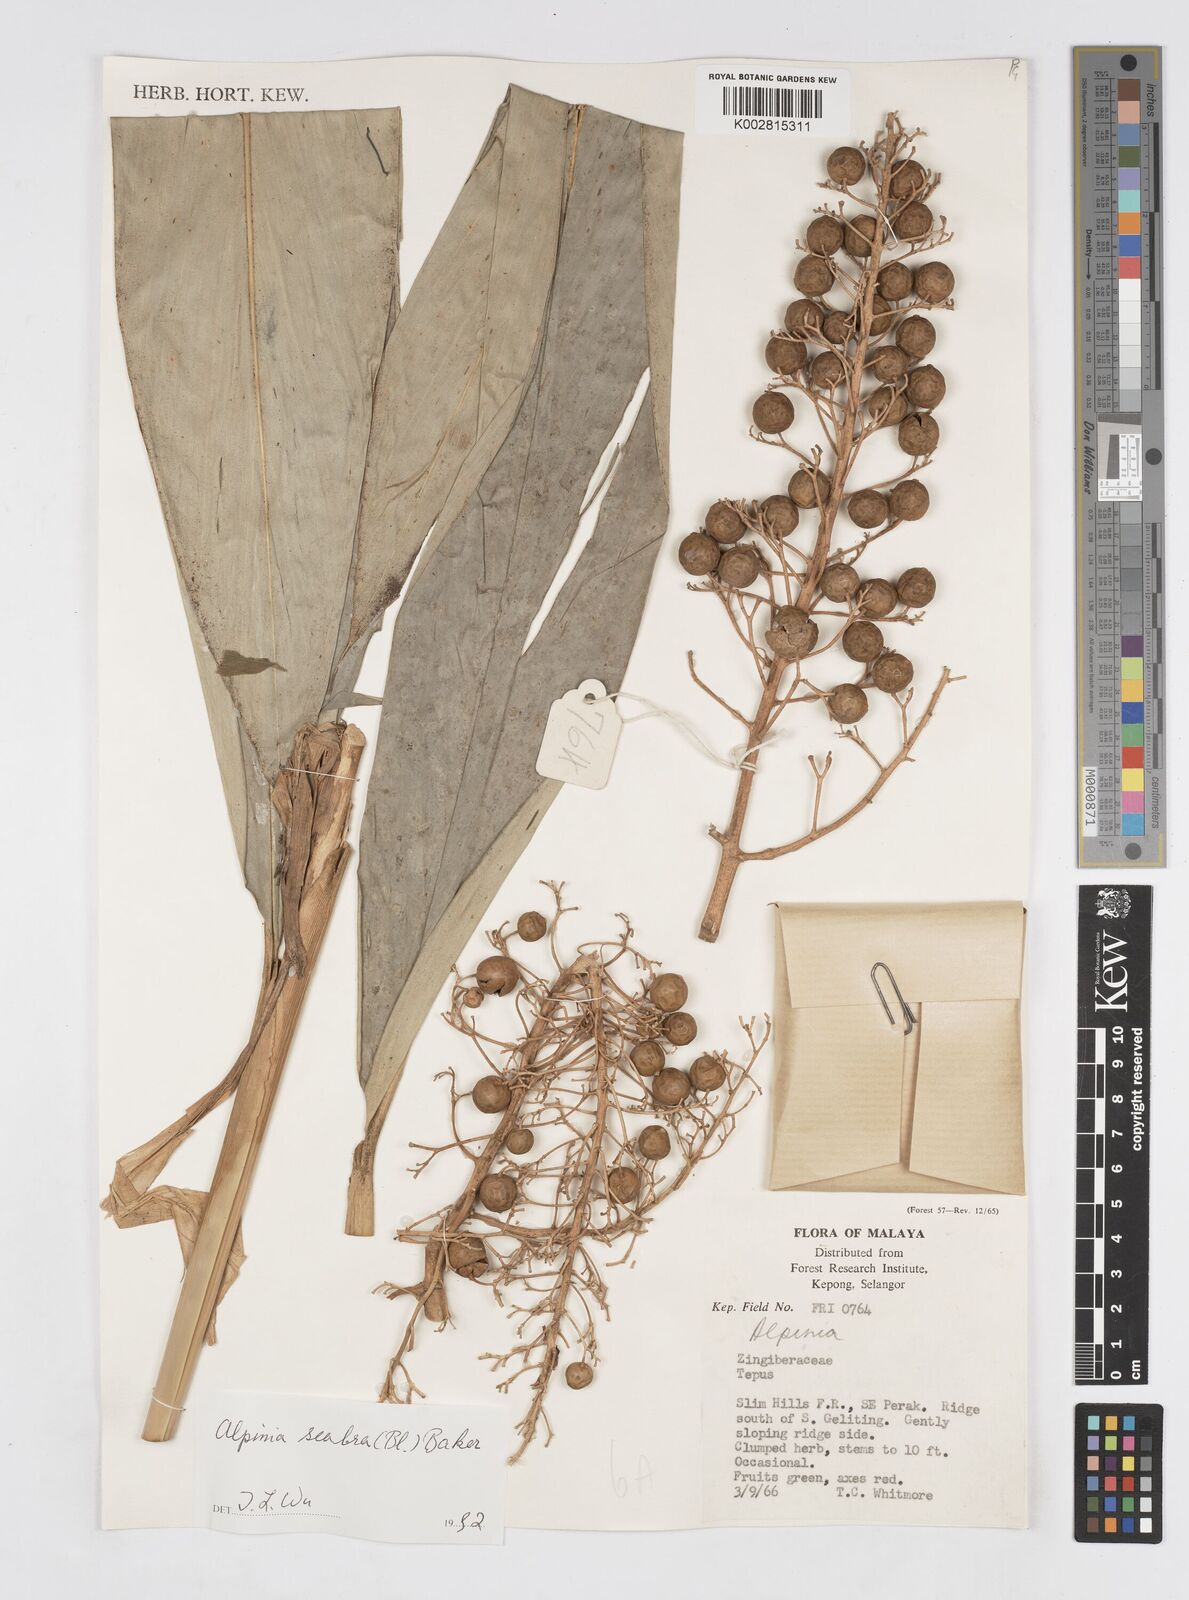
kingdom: Plantae
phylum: Tracheophyta
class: Liliopsida
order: Zingiberales
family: Zingiberaceae
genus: Alpinia
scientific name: Alpinia scabra
